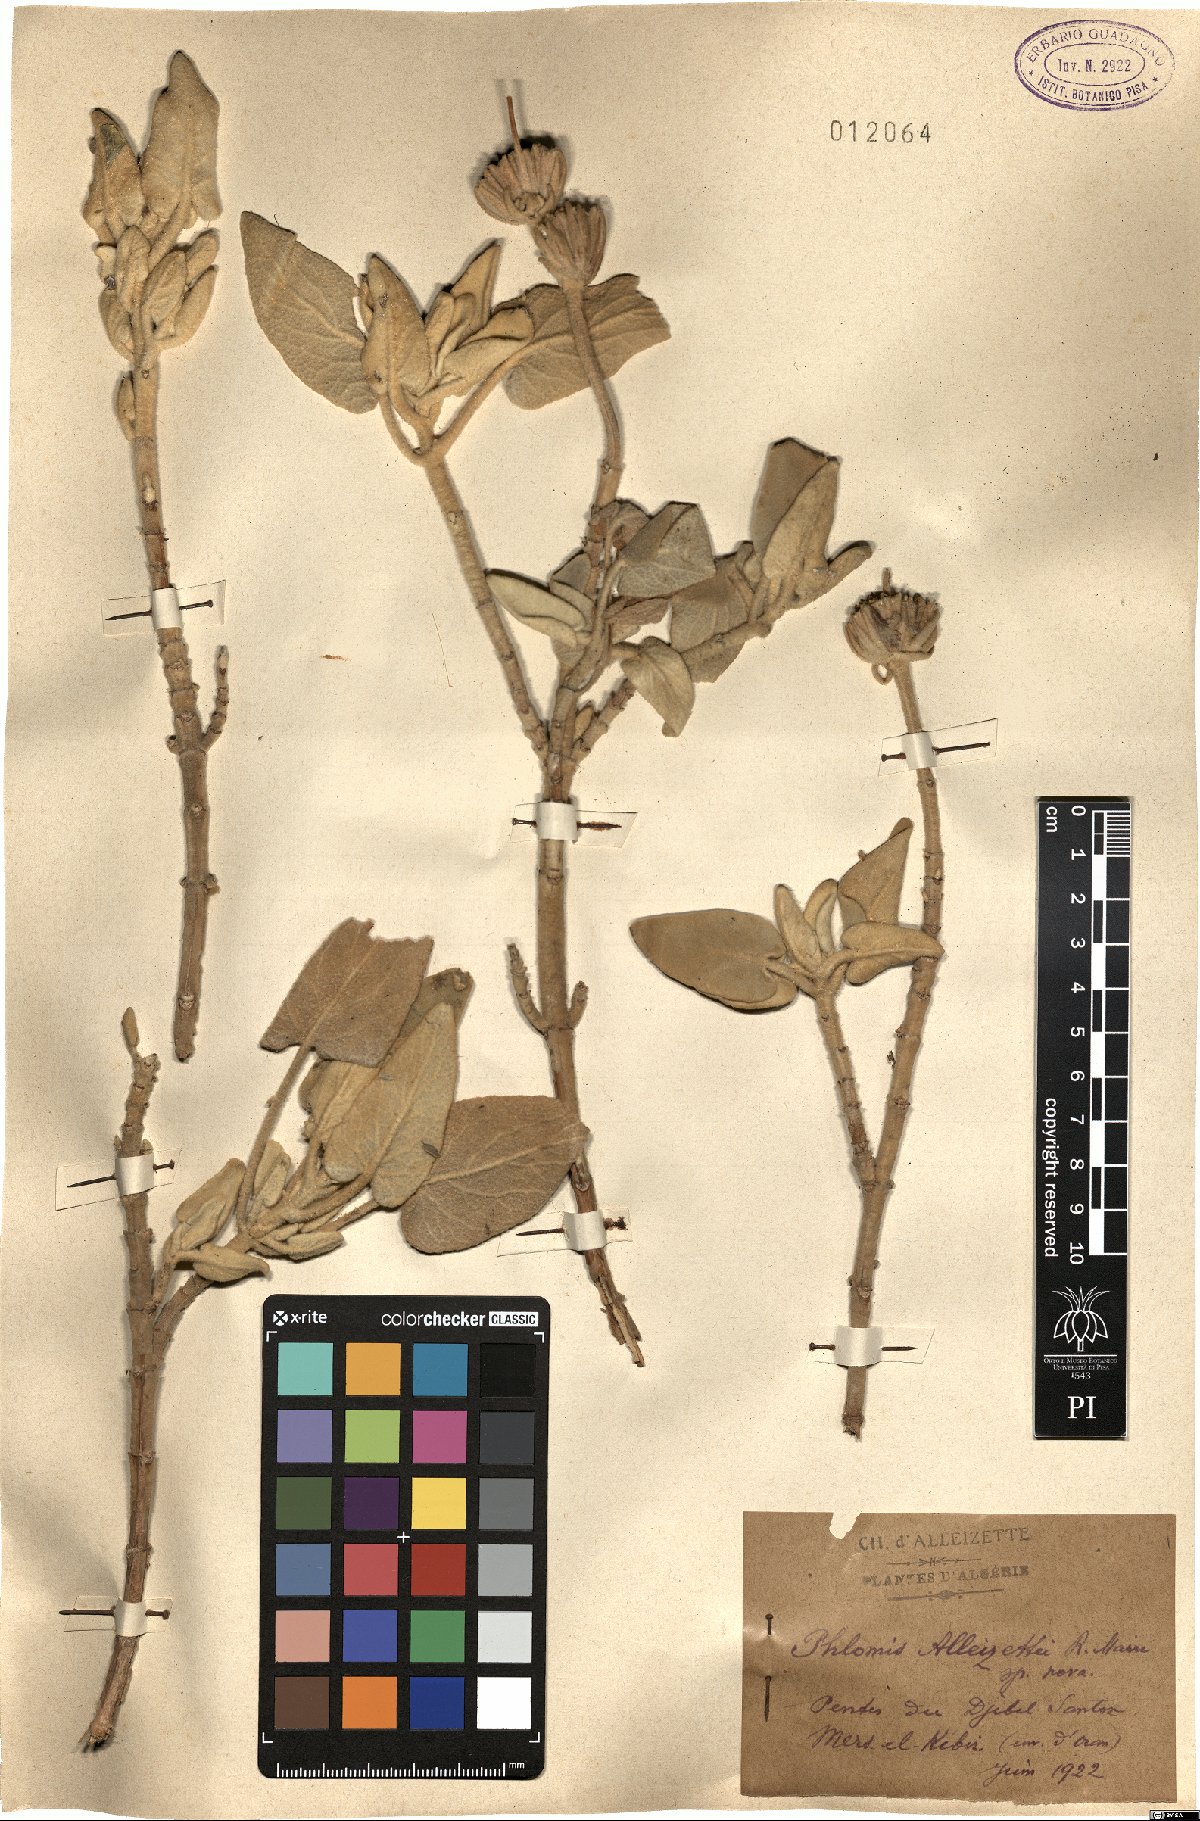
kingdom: Plantae
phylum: Tracheophyta
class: Magnoliopsida
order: Lamiales
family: Lamiaceae
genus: Phlomis
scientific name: Phlomis
